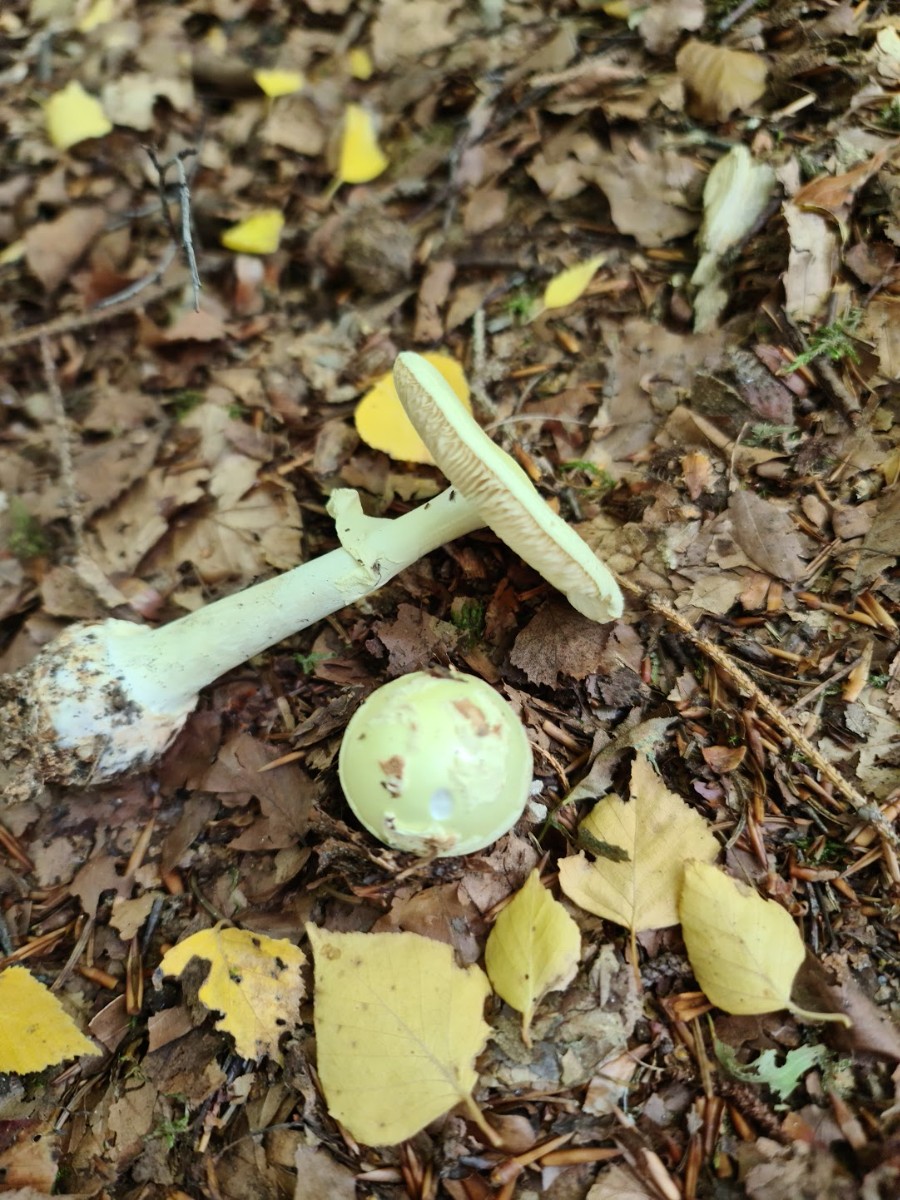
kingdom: Fungi
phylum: Basidiomycota
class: Agaricomycetes
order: Agaricales
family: Amanitaceae
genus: Amanita
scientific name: Amanita citrina
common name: kugleknoldet fluesvamp
